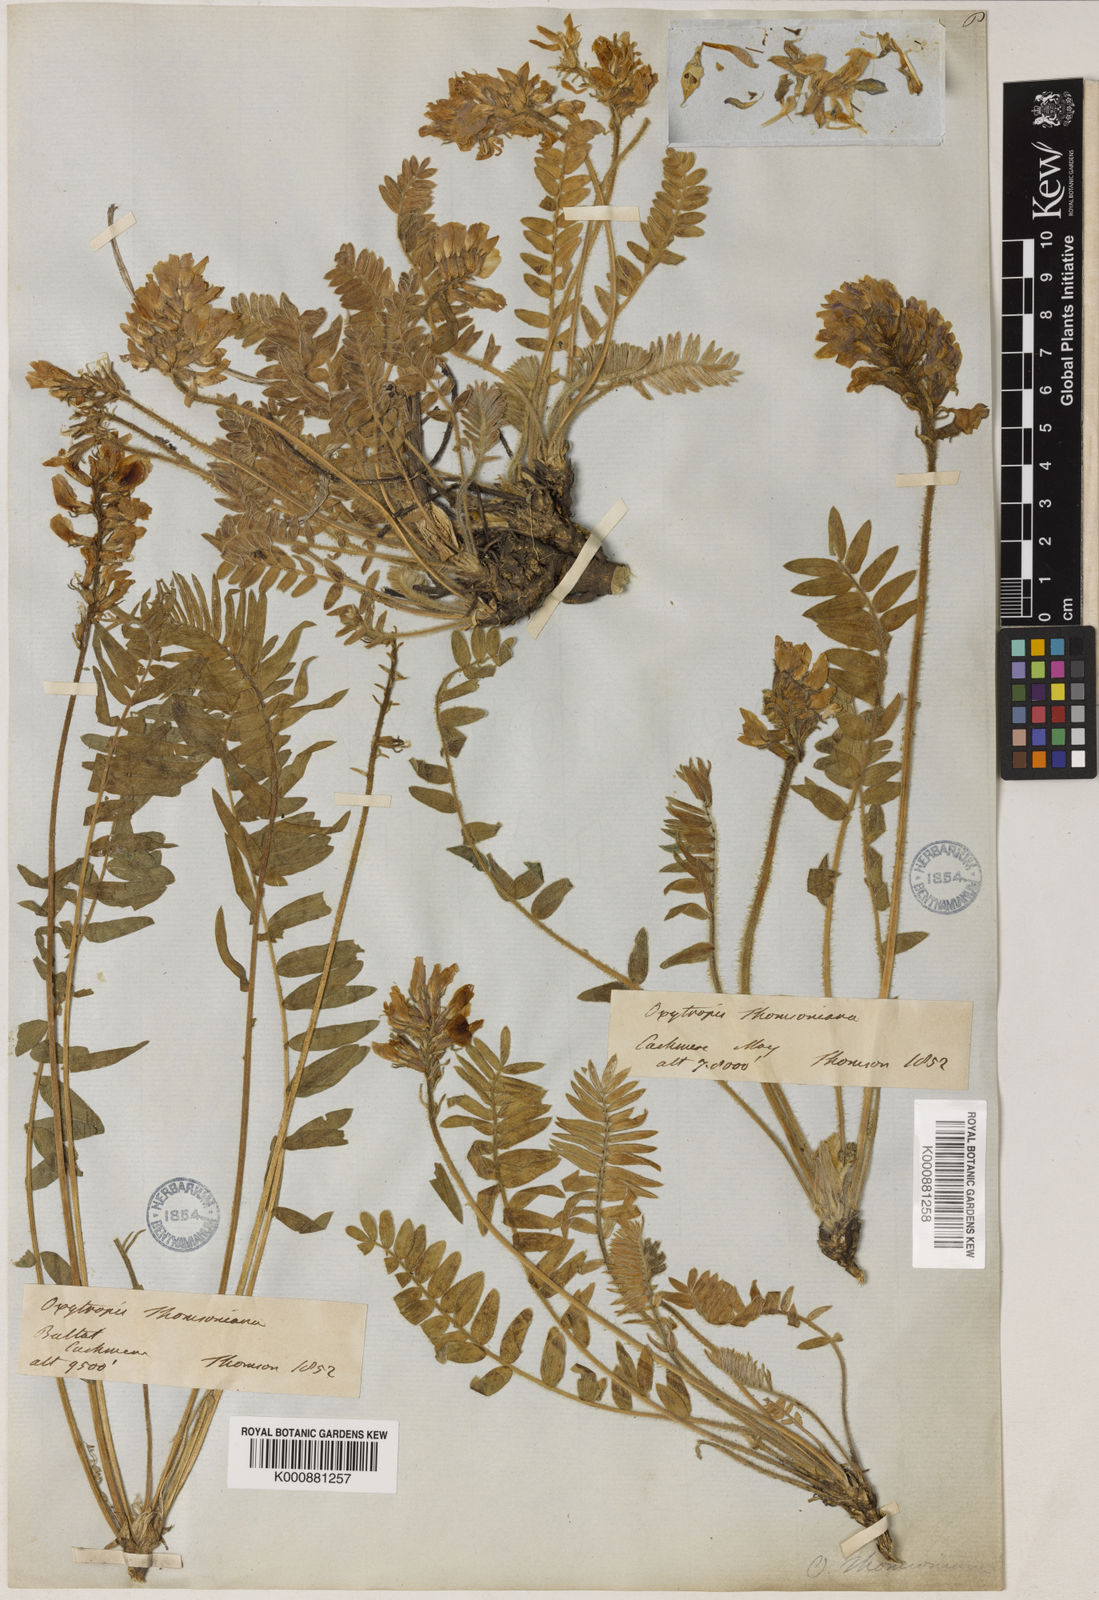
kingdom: Plantae
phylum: Tracheophyta
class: Magnoliopsida
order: Fabales
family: Fabaceae
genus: Oxytropis
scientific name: Oxytropis mollis
